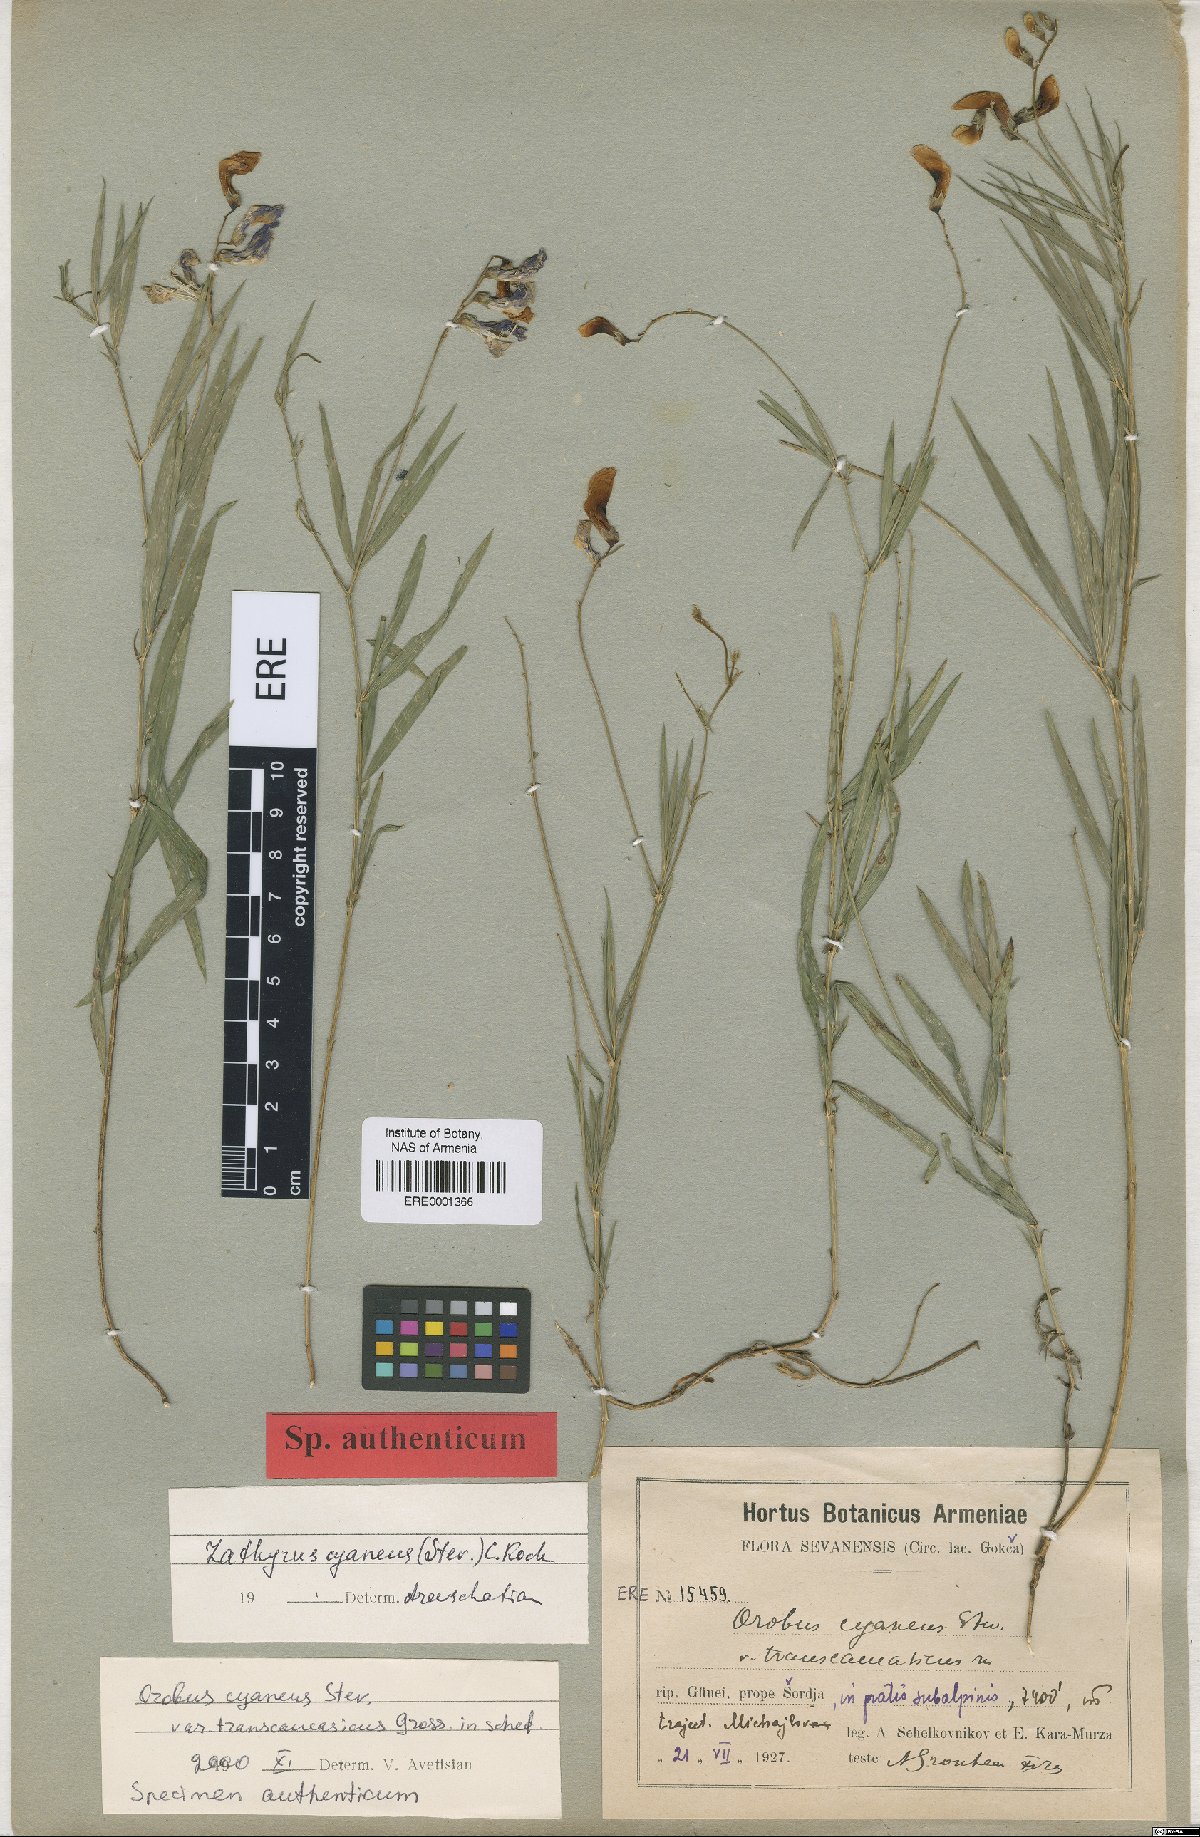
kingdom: Plantae
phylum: Tracheophyta
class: Magnoliopsida
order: Fabales
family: Fabaceae
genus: Lathyrus
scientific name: Lathyrus cyaneus
